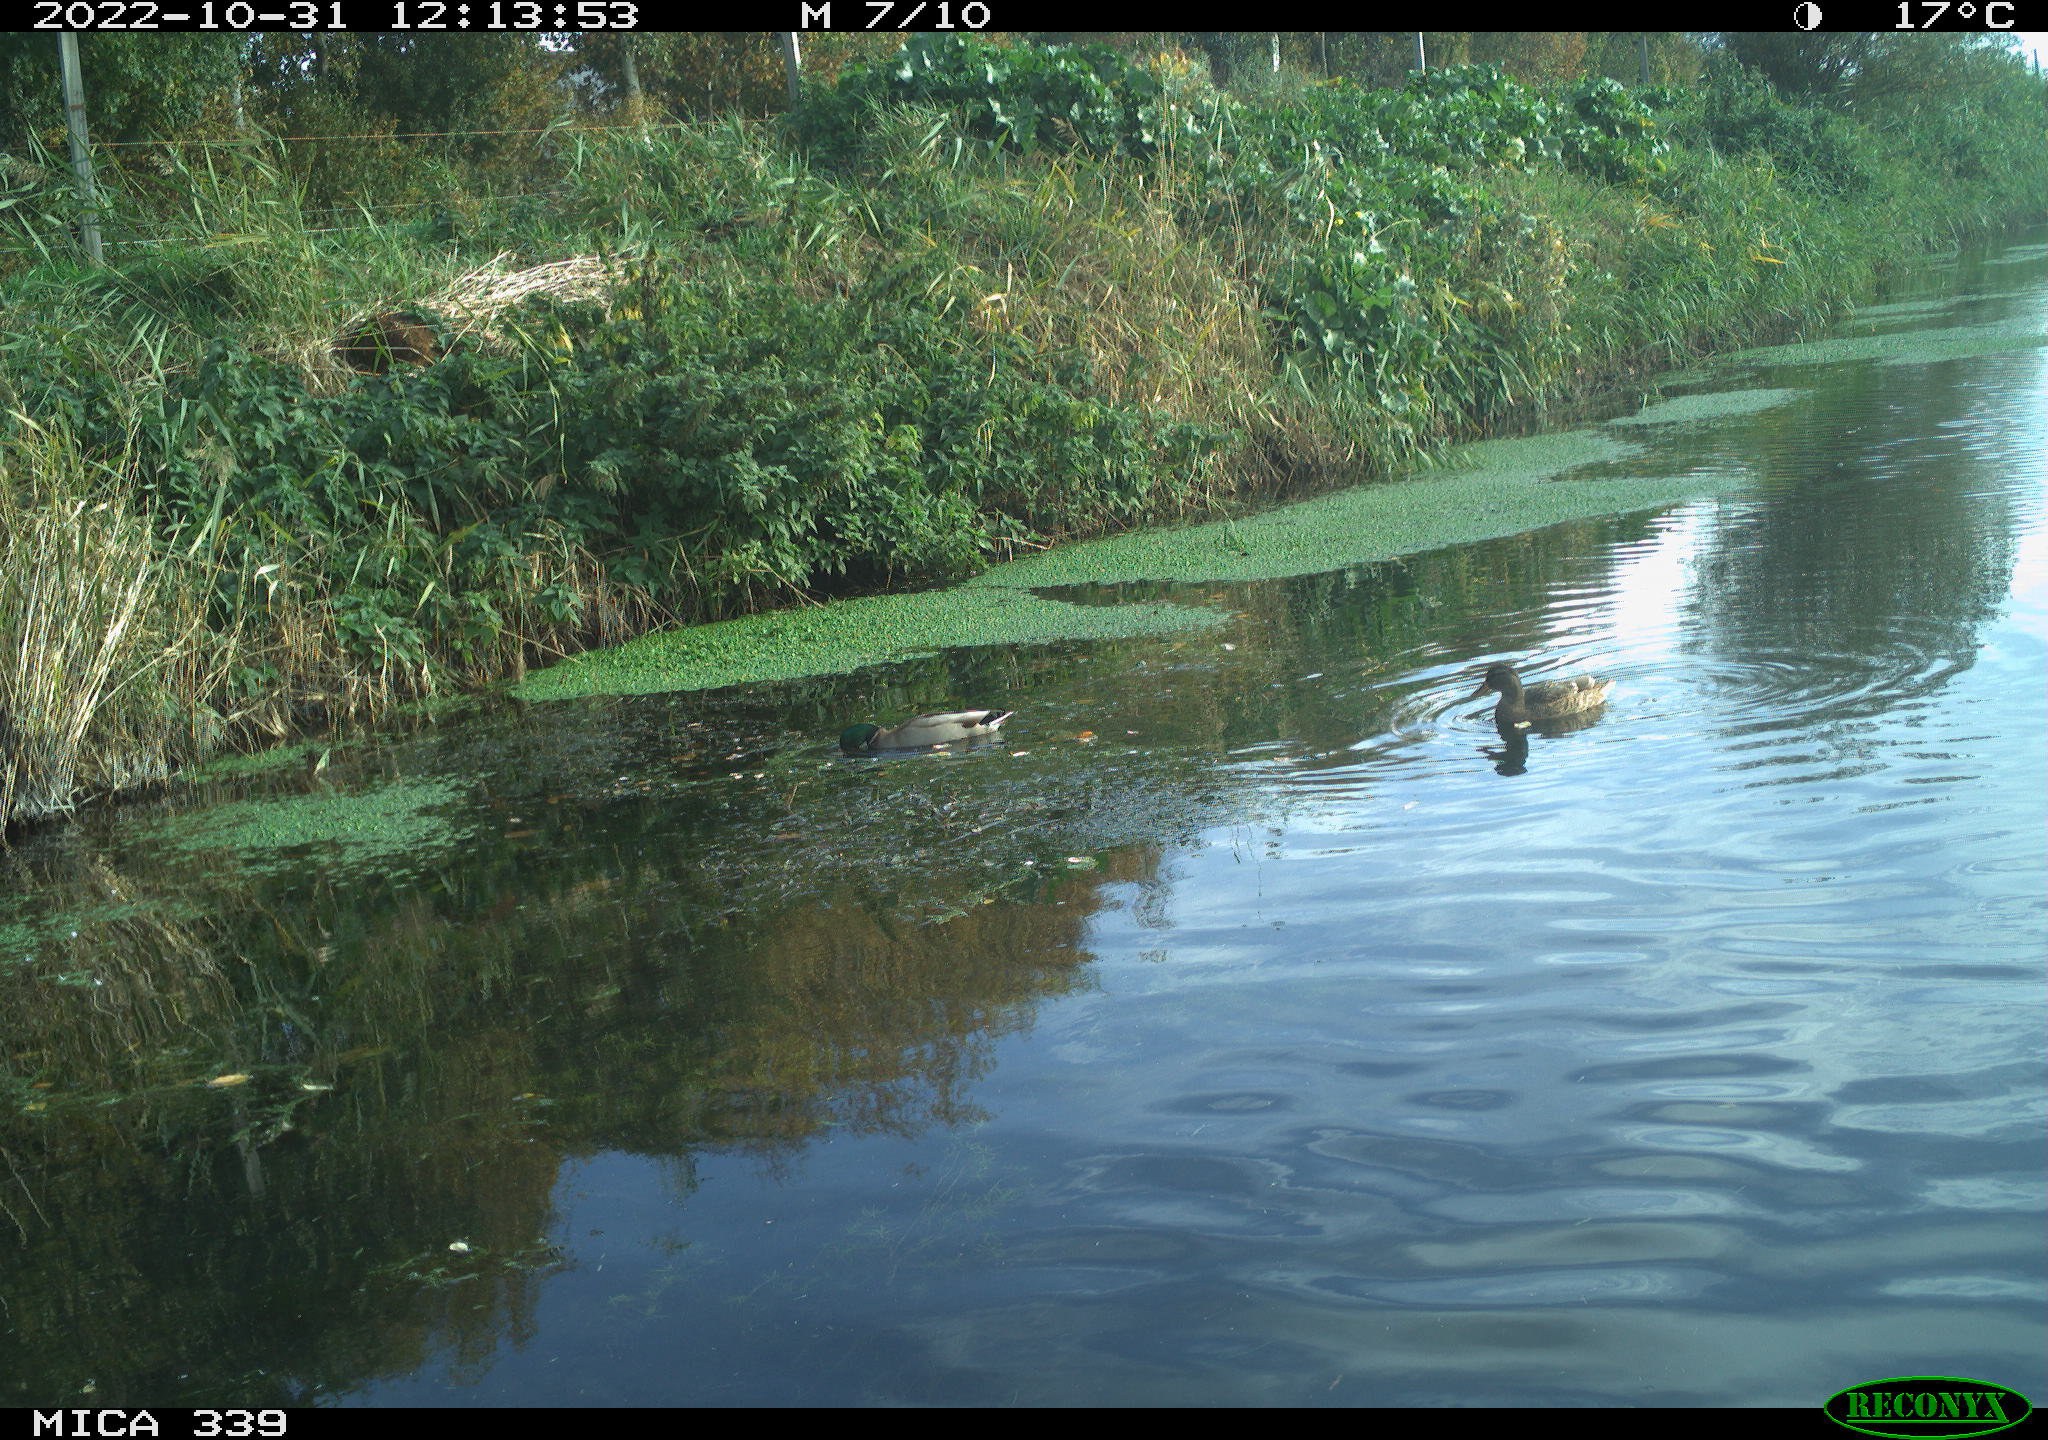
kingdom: Animalia
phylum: Chordata
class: Aves
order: Anseriformes
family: Anatidae
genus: Anas
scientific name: Anas platyrhynchos
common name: Mallard
